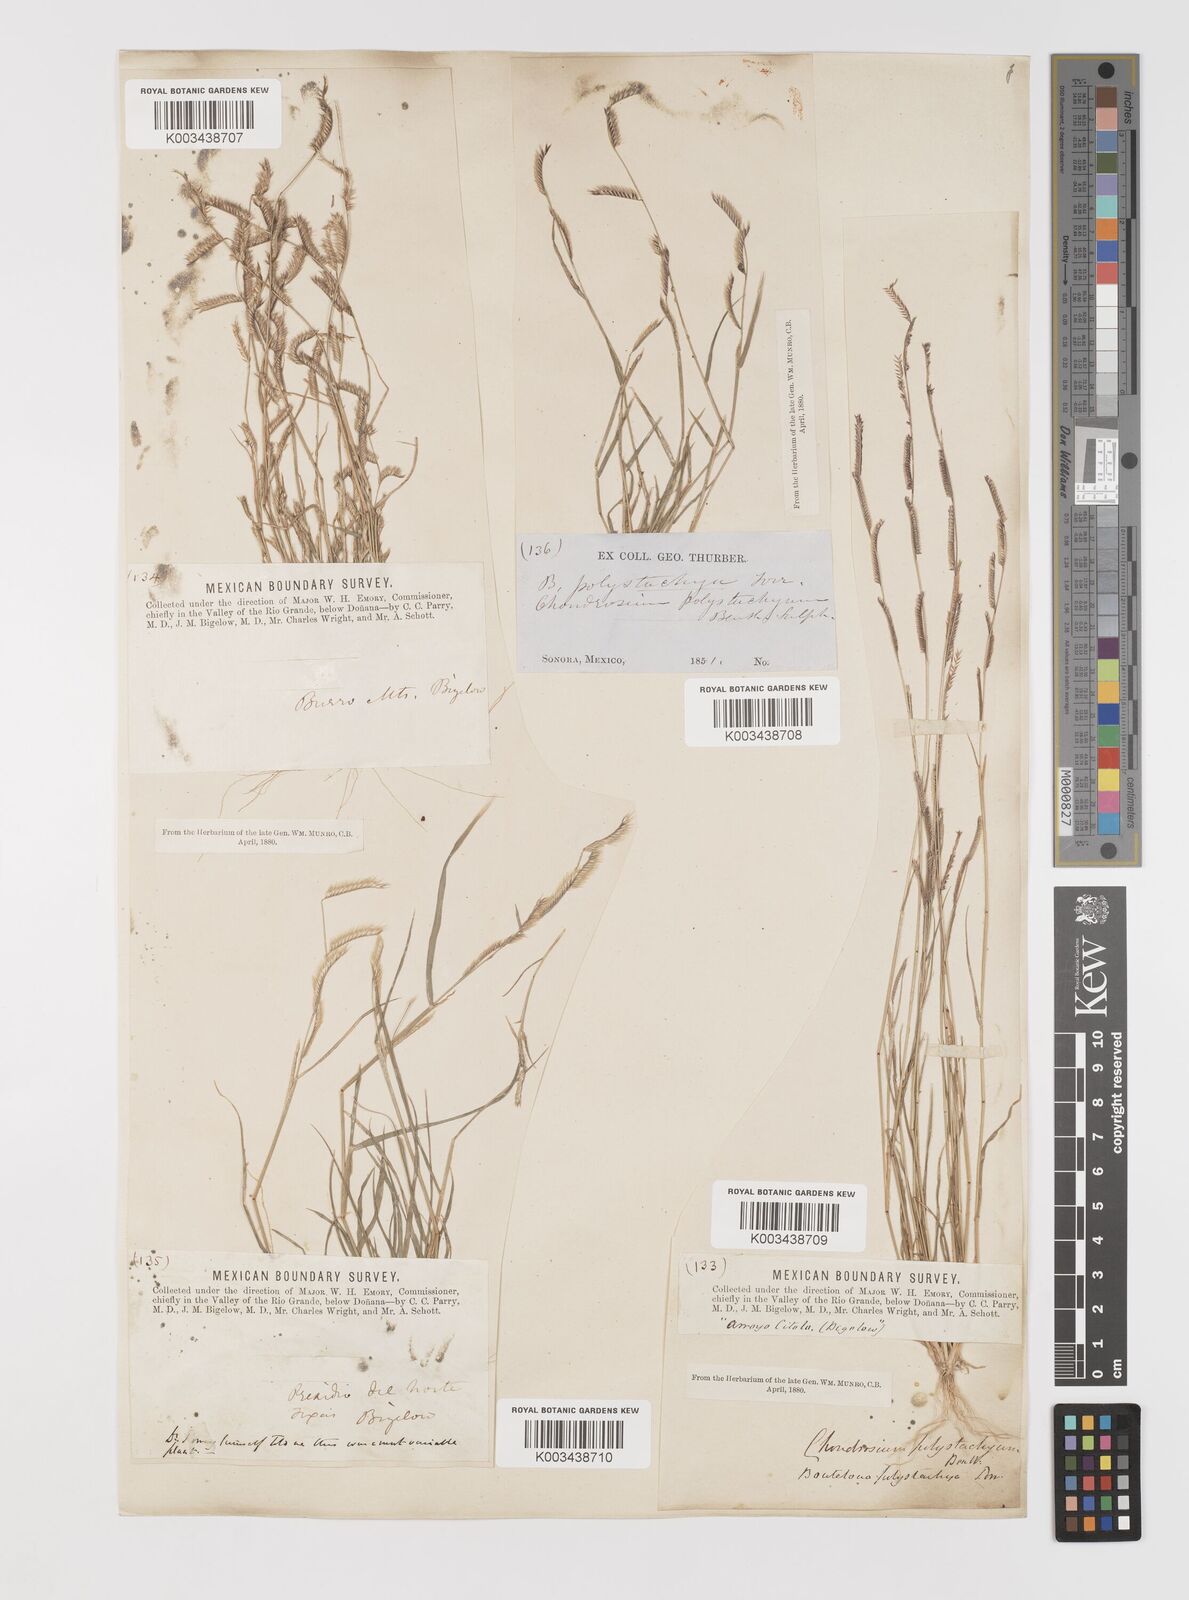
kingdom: Plantae
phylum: Tracheophyta
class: Liliopsida
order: Poales
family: Poaceae
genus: Bouteloua
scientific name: Bouteloua barbata
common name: Six-weeks grama
